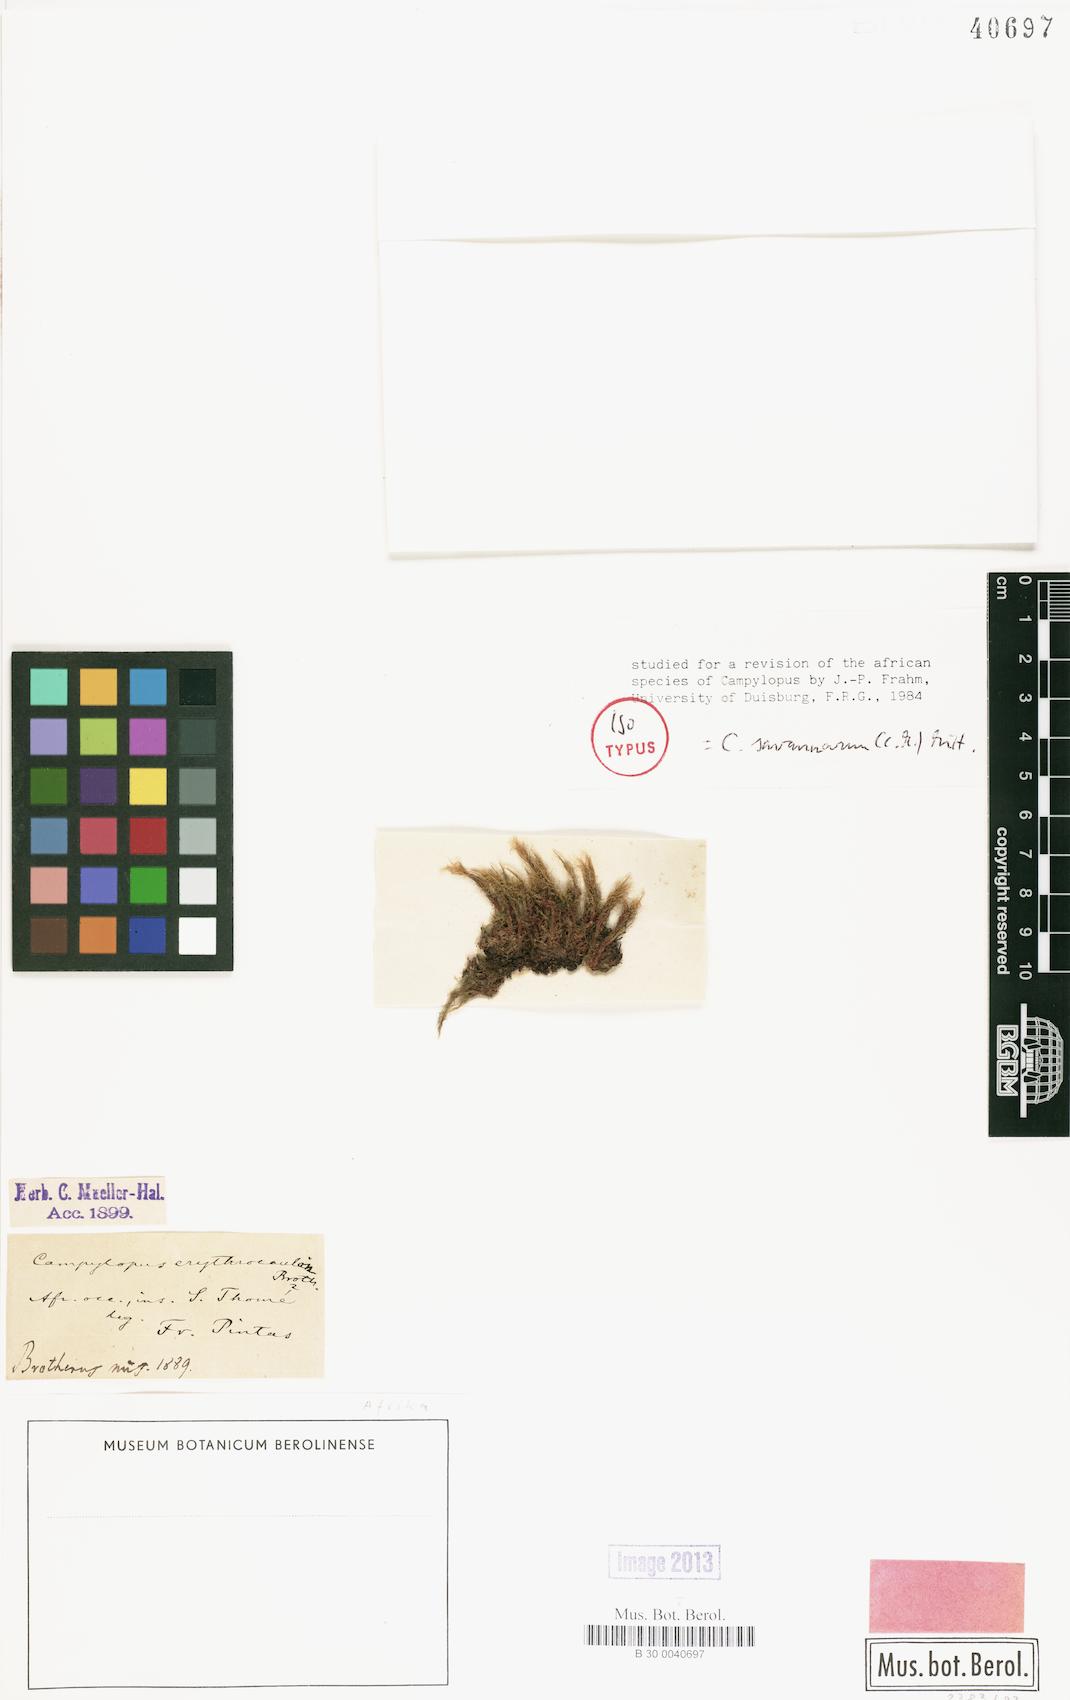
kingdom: Plantae
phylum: Bryophyta
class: Bryopsida
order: Dicranales
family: Leucobryaceae
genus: Campylopus
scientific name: Campylopus savannarum
